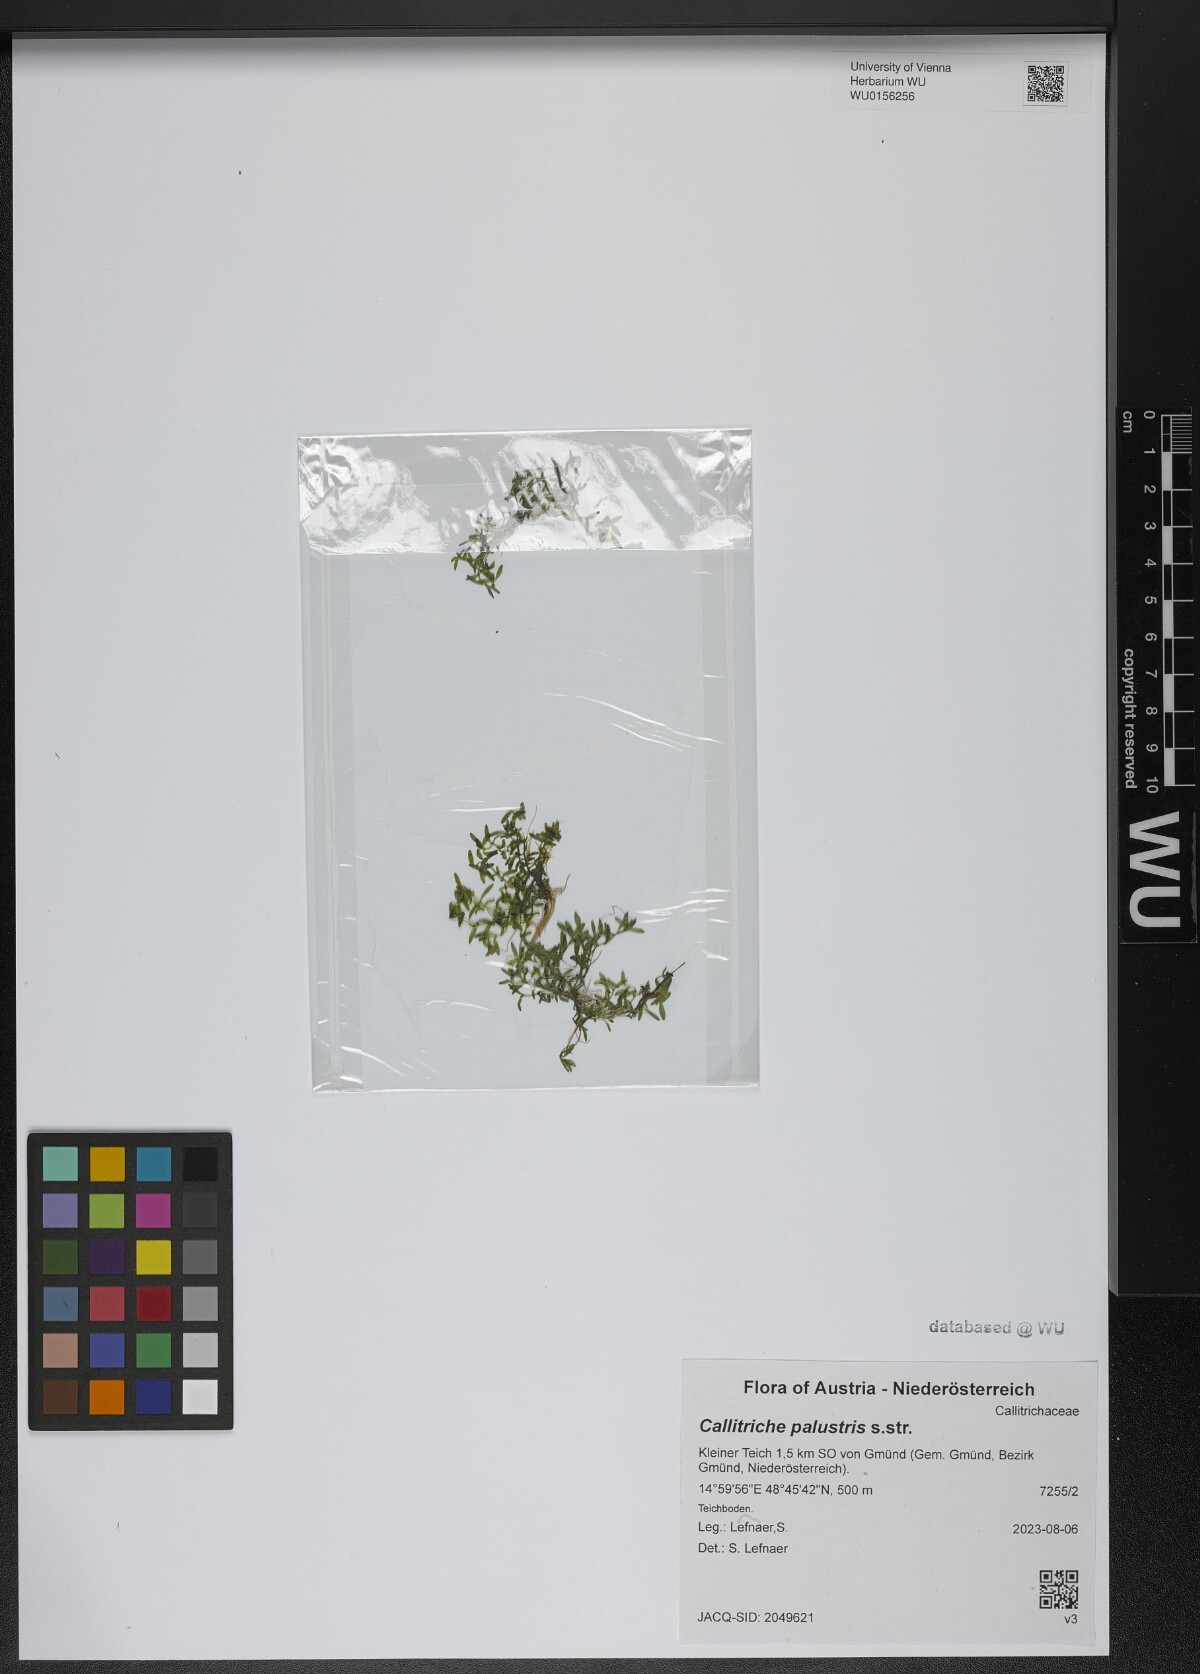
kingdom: Plantae
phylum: Tracheophyta
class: Magnoliopsida
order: Lamiales
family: Plantaginaceae
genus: Callitriche
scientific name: Callitriche palustris
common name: Spring water-starwort
